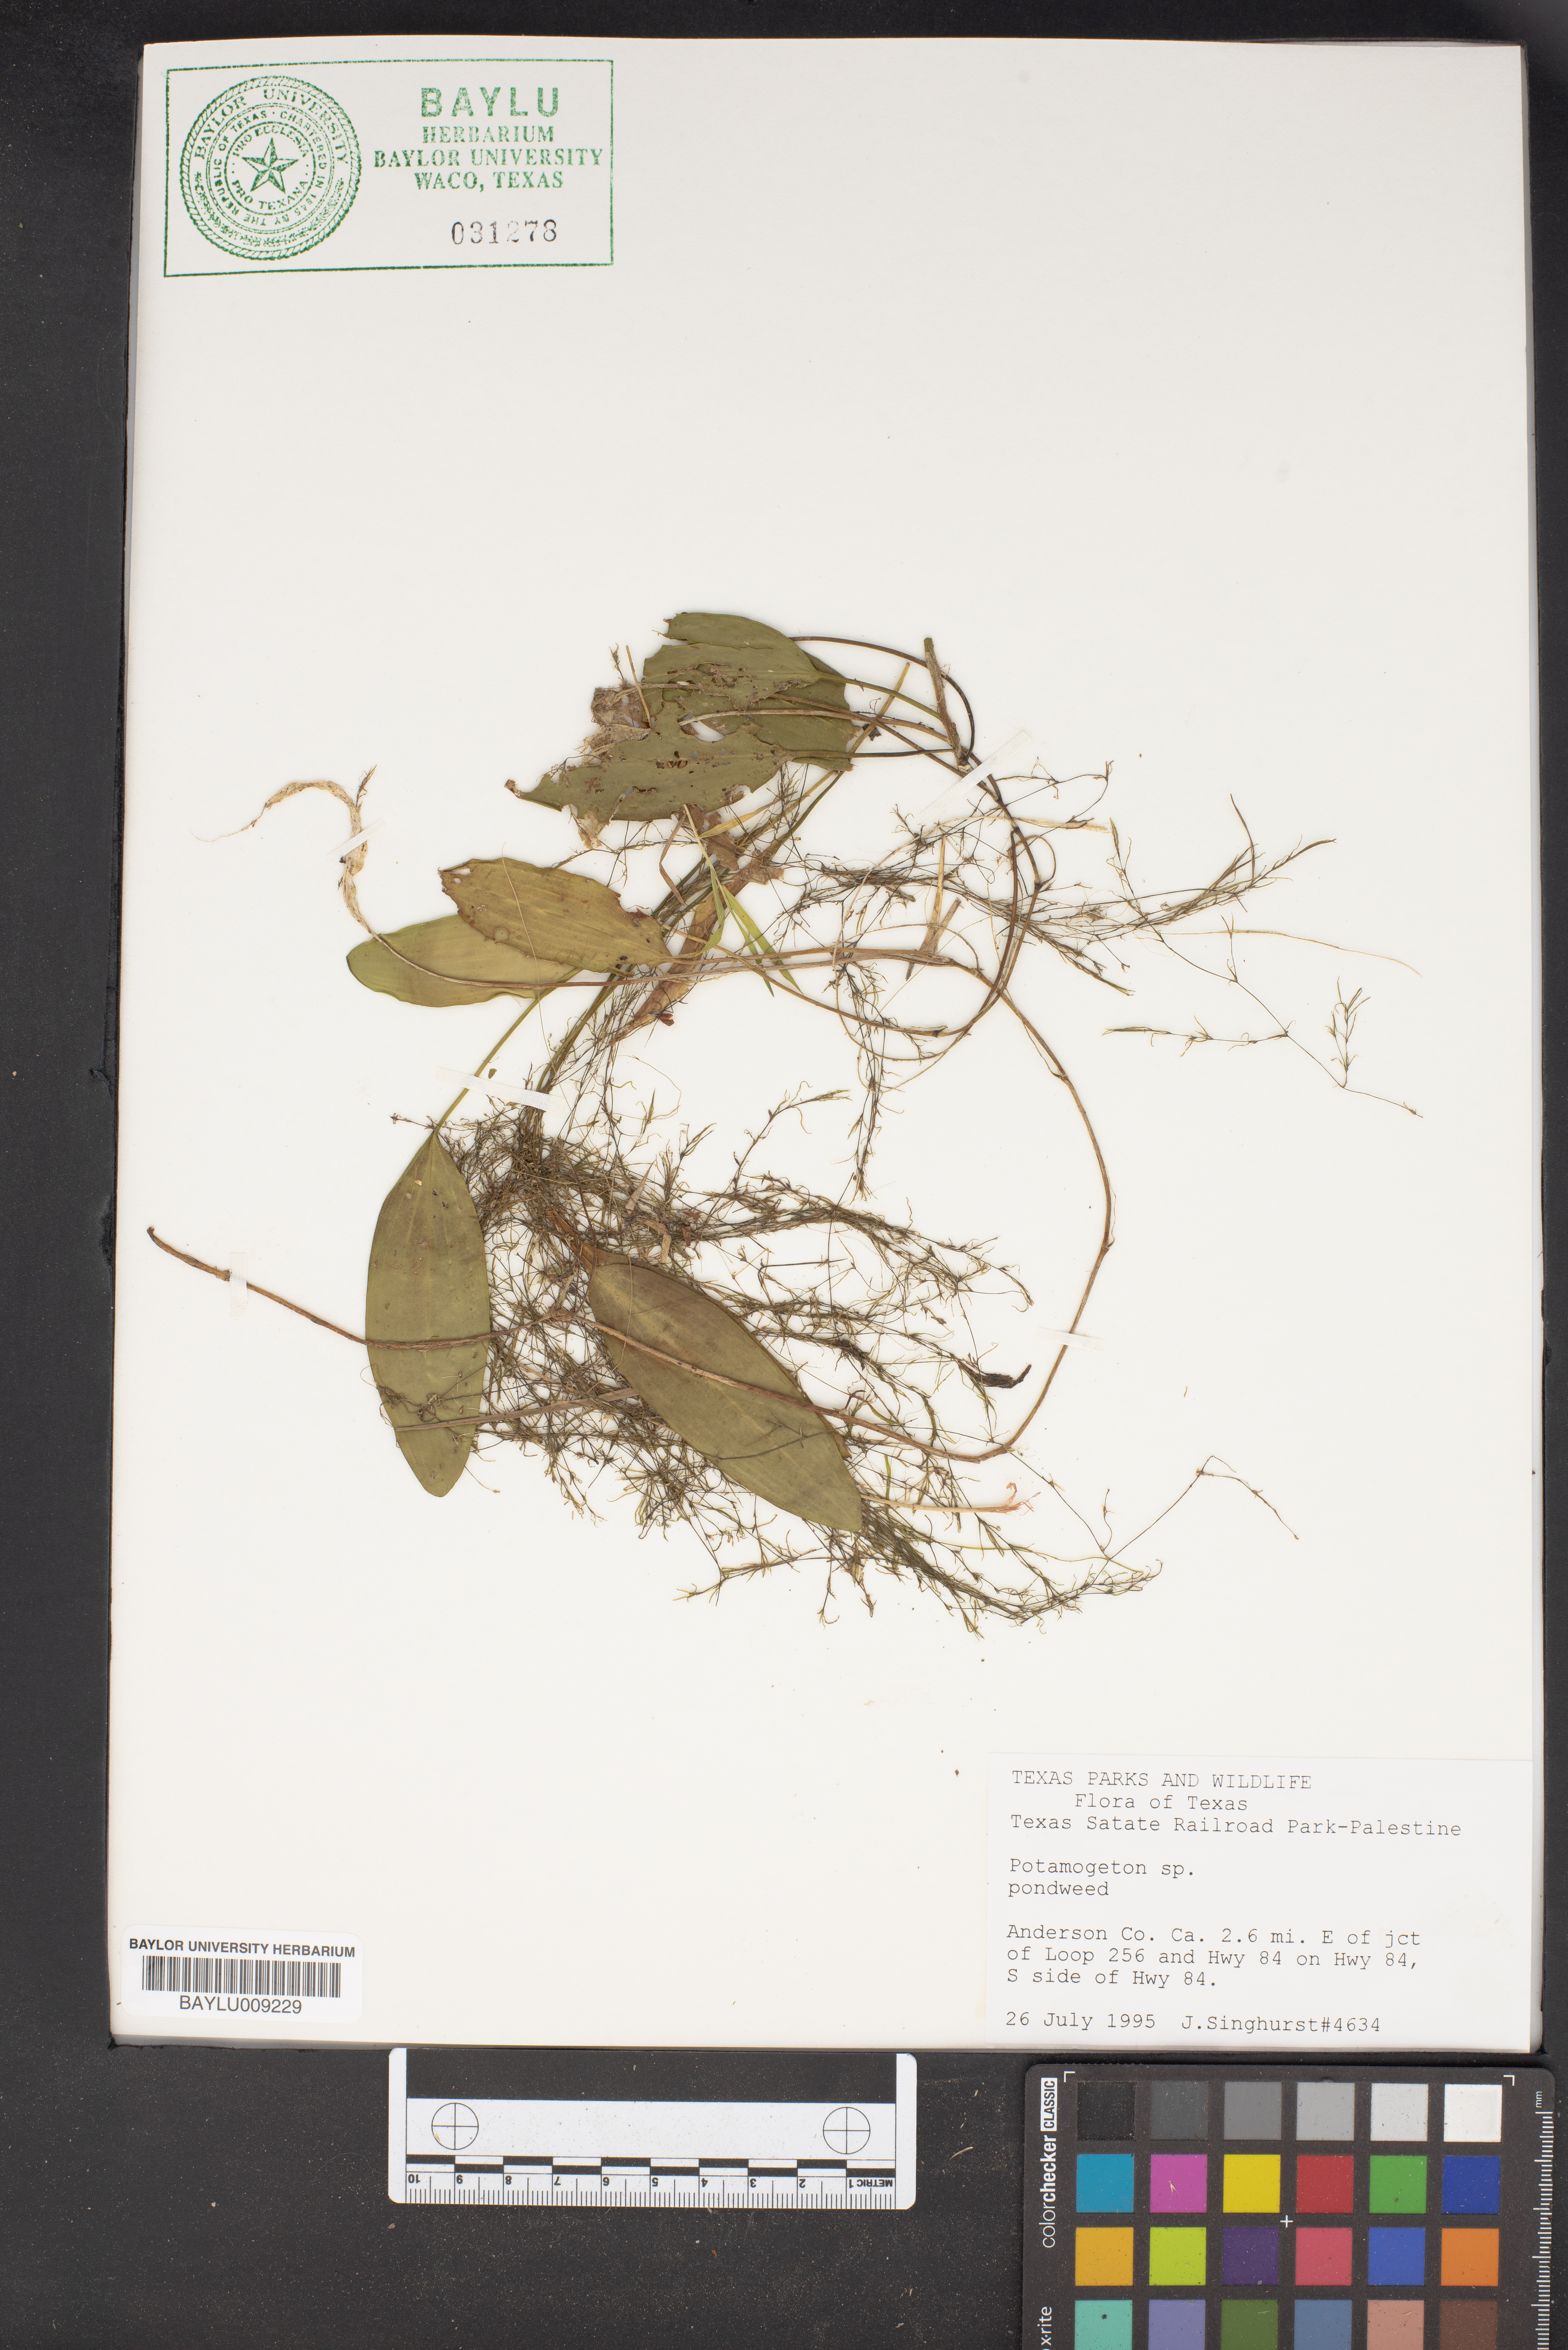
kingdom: Plantae
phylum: Tracheophyta
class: Liliopsida
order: Alismatales
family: Potamogetonaceae
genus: Potamogeton
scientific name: Potamogeton
